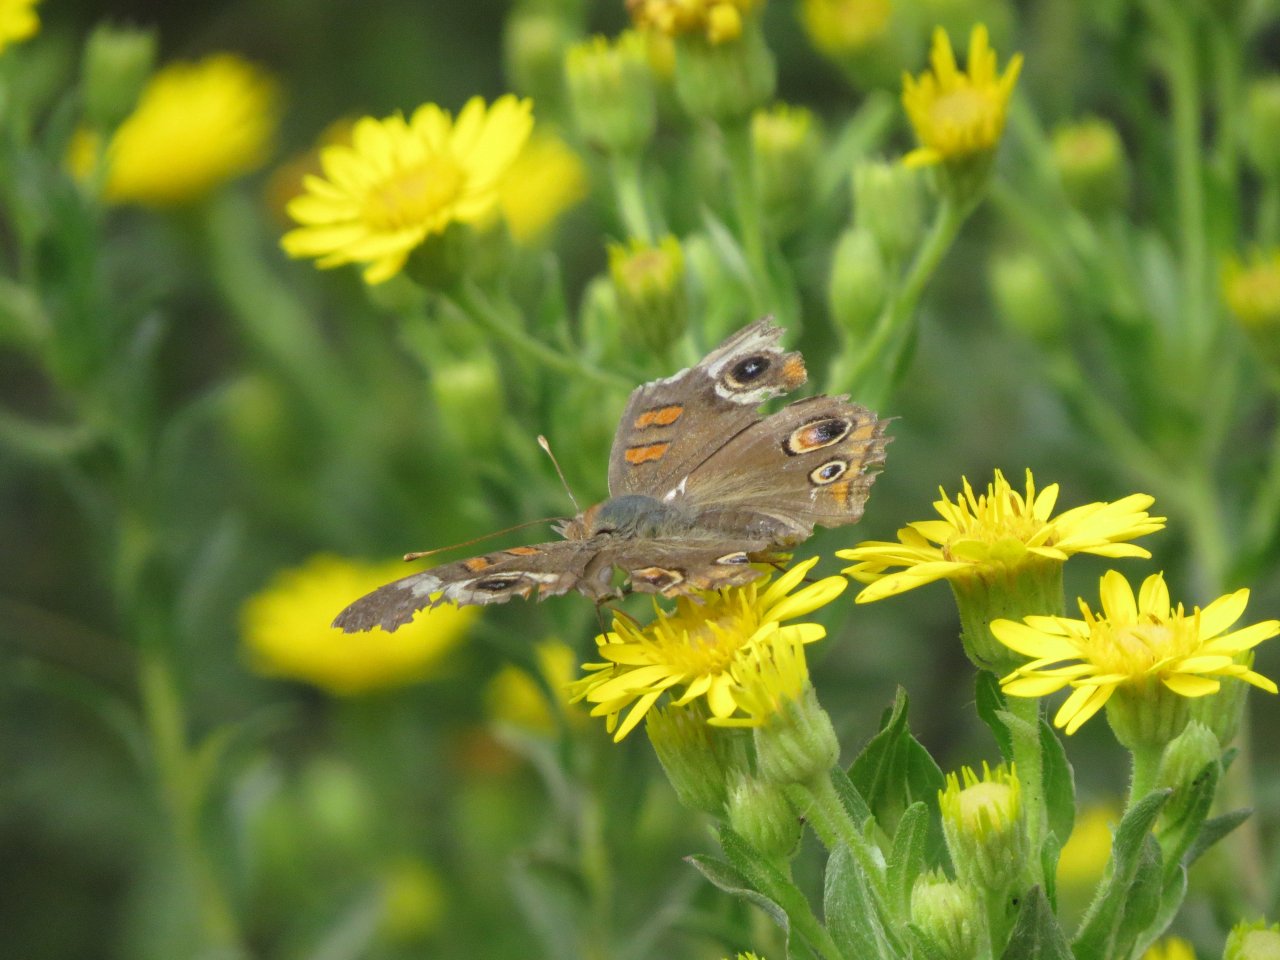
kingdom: Animalia
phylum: Arthropoda
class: Insecta
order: Lepidoptera
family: Nymphalidae
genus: Junonia
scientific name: Junonia coenia
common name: Common Buckeye
